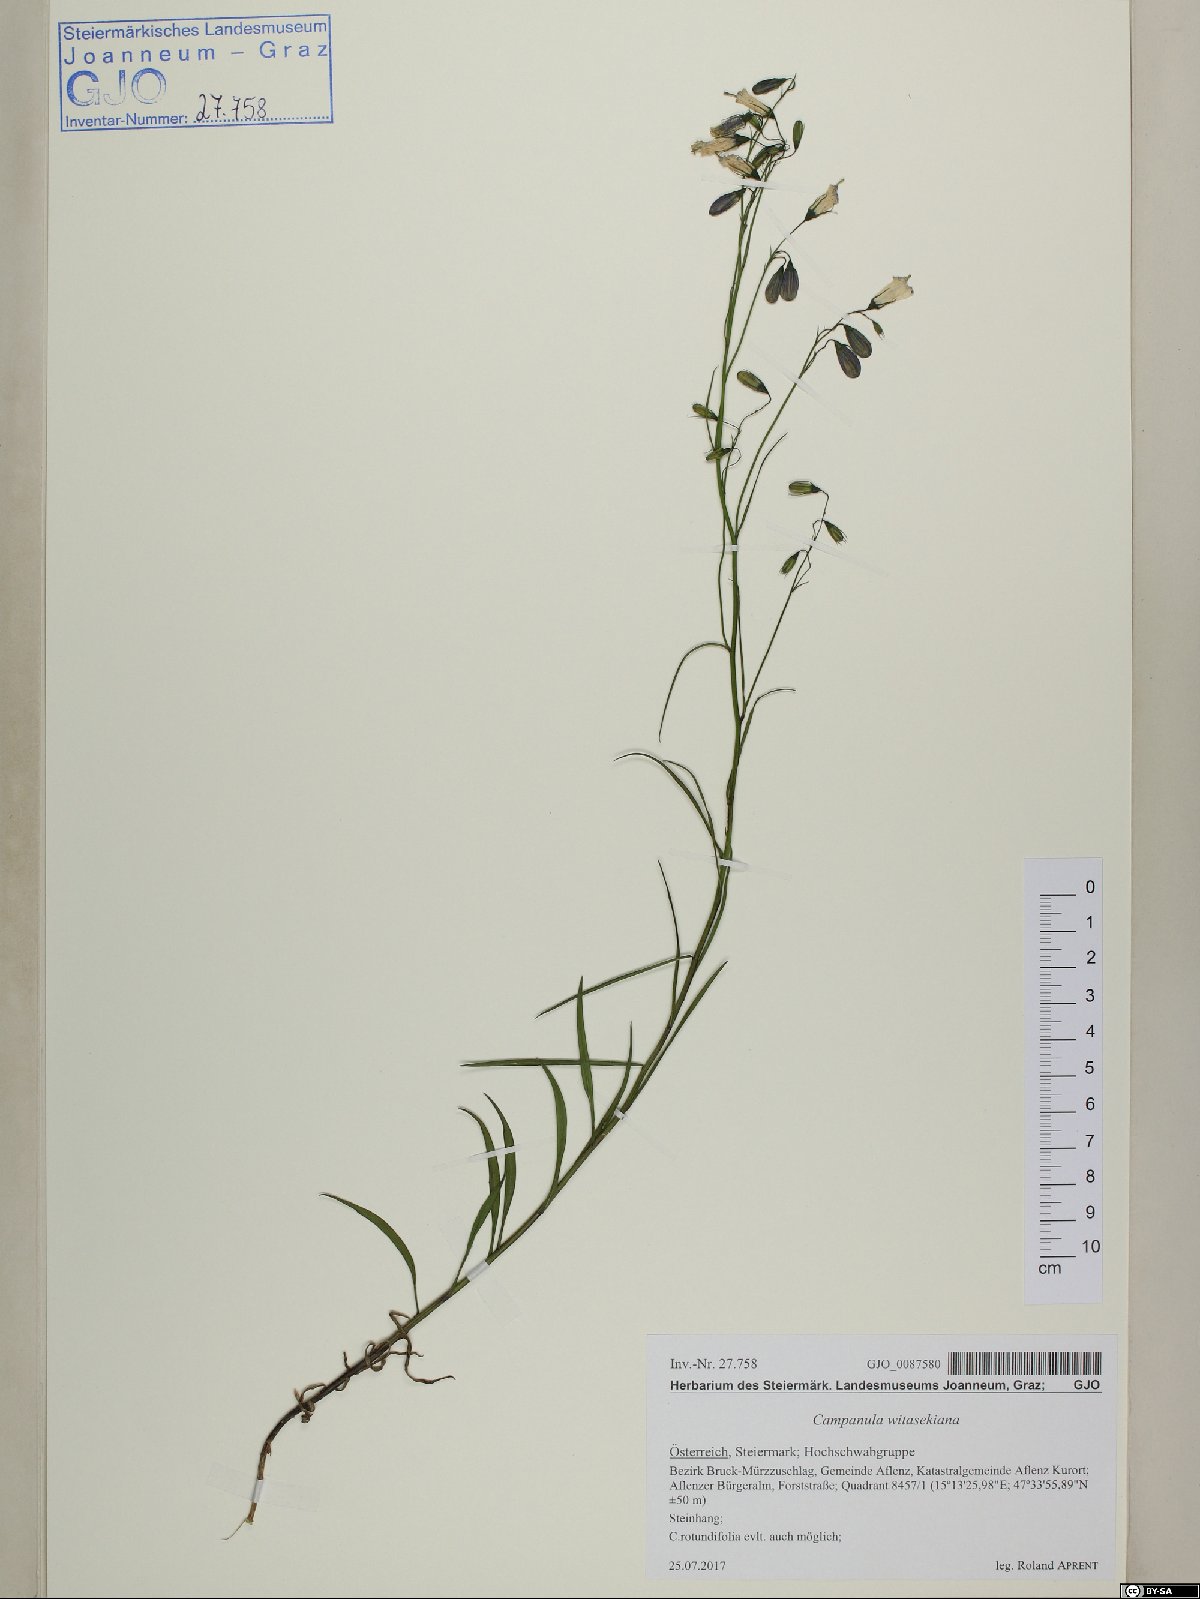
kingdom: Plantae
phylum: Tracheophyta
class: Magnoliopsida
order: Asterales
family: Campanulaceae
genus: Campanula
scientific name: Campanula witasekiana
